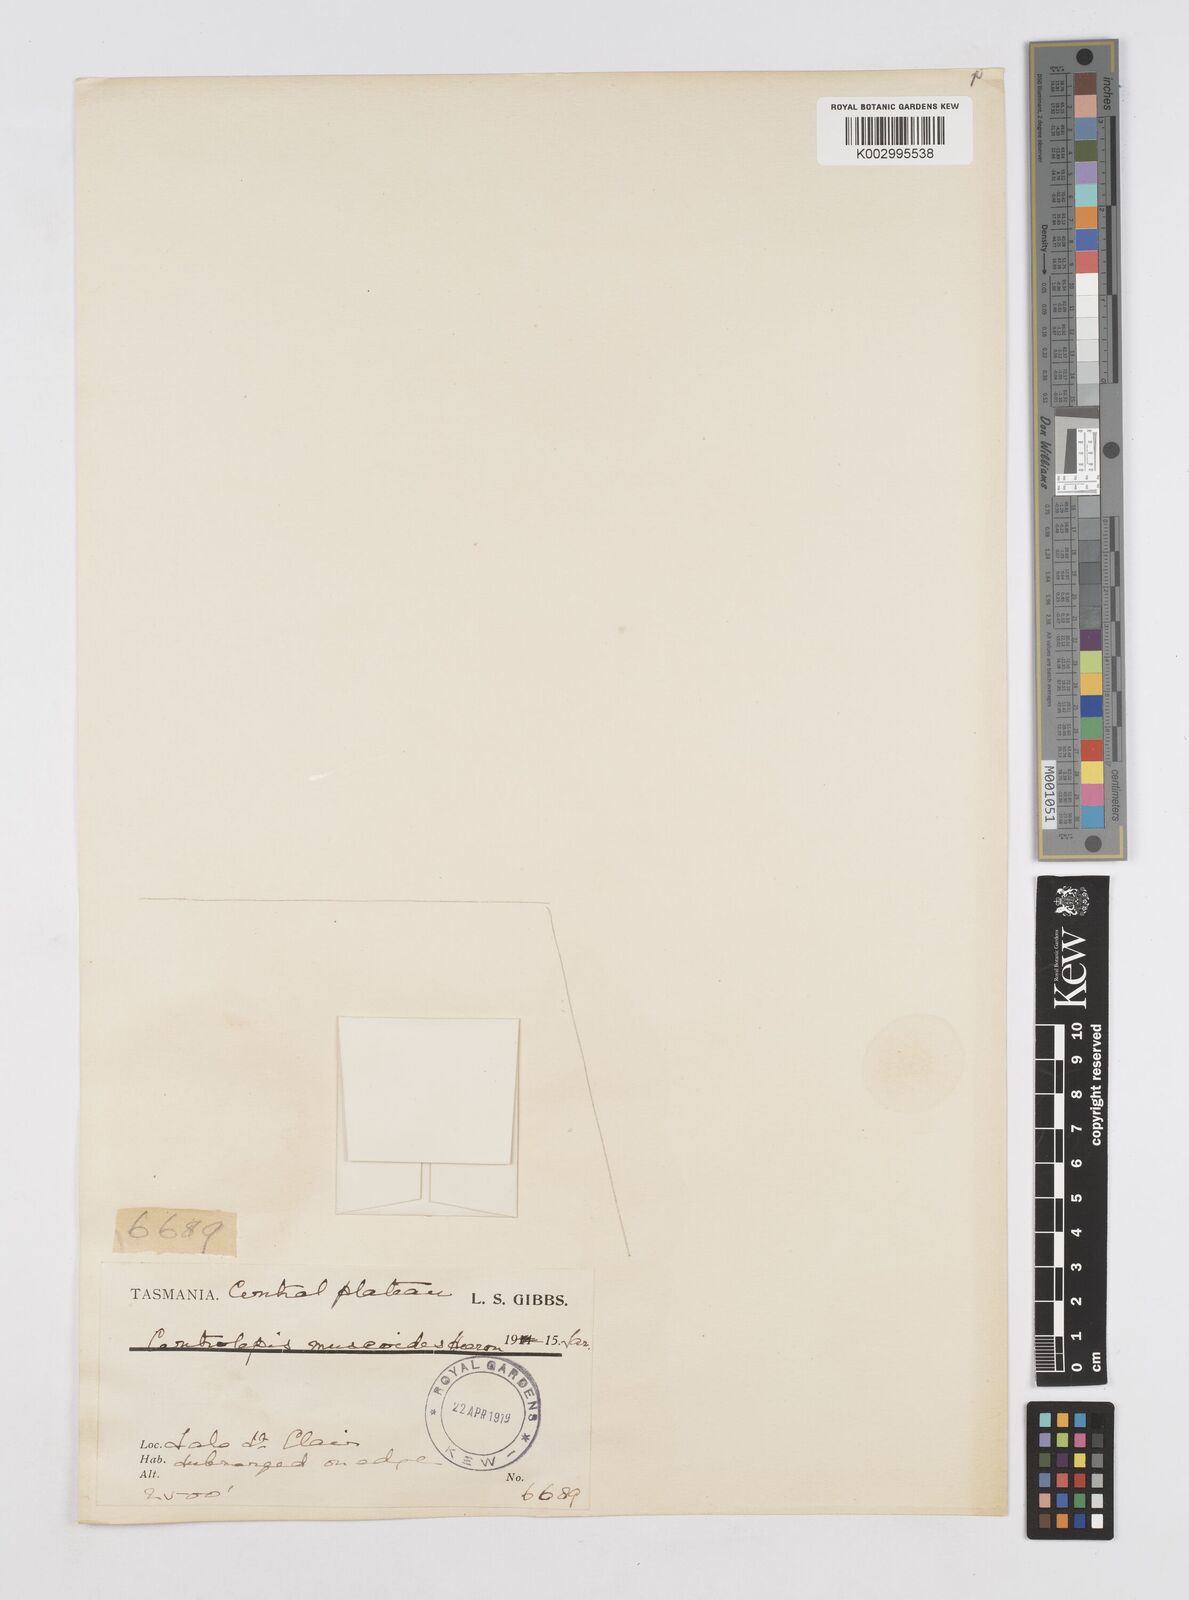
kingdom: Plantae
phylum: Tracheophyta
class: Liliopsida
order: Poales
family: Restionaceae
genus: Centrolepis
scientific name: Centrolepis muscoides
